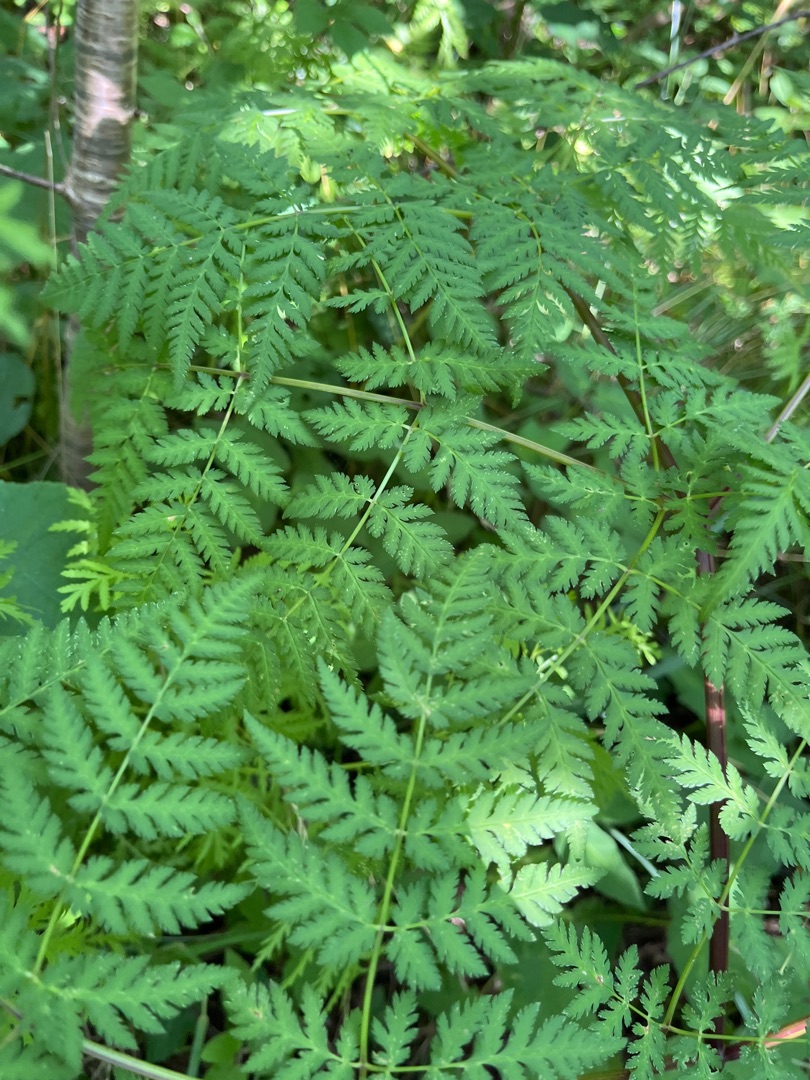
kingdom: Plantae
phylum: Tracheophyta
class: Magnoliopsida
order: Apiales
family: Apiaceae
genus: Myrrhis
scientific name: Myrrhis odorata
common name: Sødskærm
